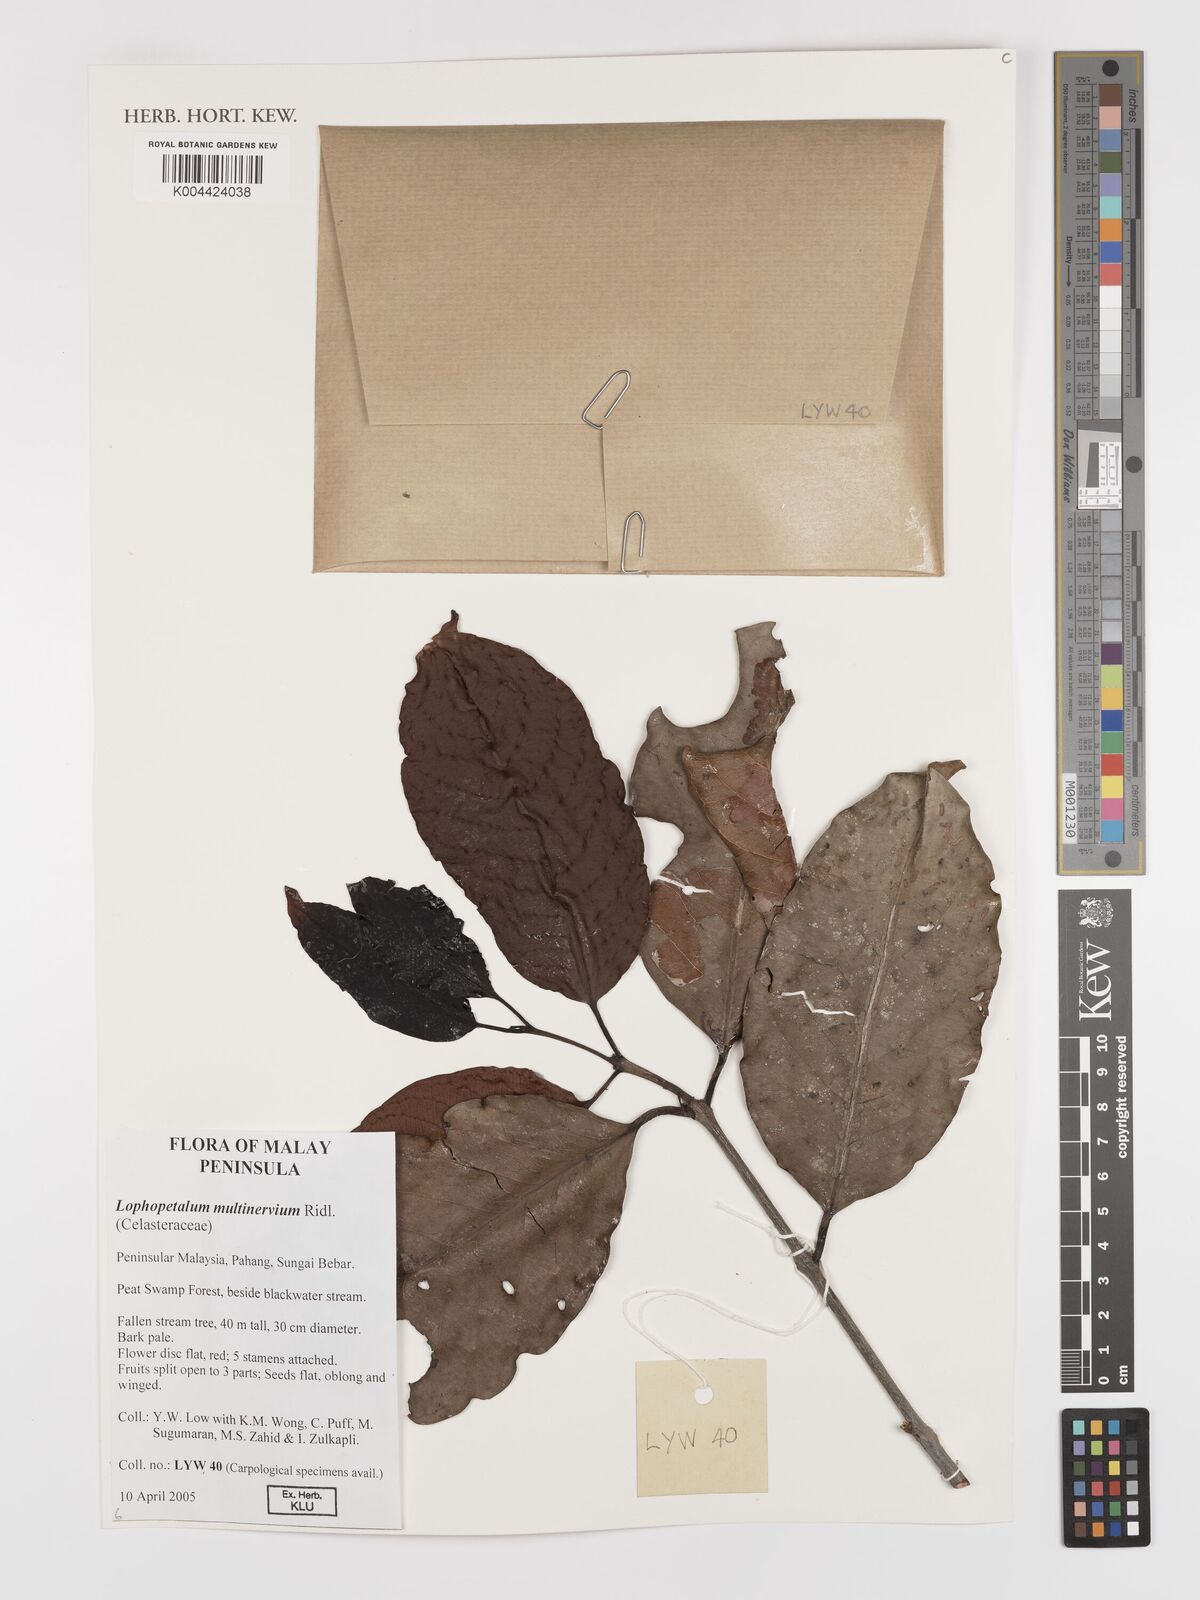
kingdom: Plantae
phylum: Tracheophyta
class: Magnoliopsida
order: Celastrales
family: Celastraceae
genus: Lophopetalum
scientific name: Lophopetalum multinervium
